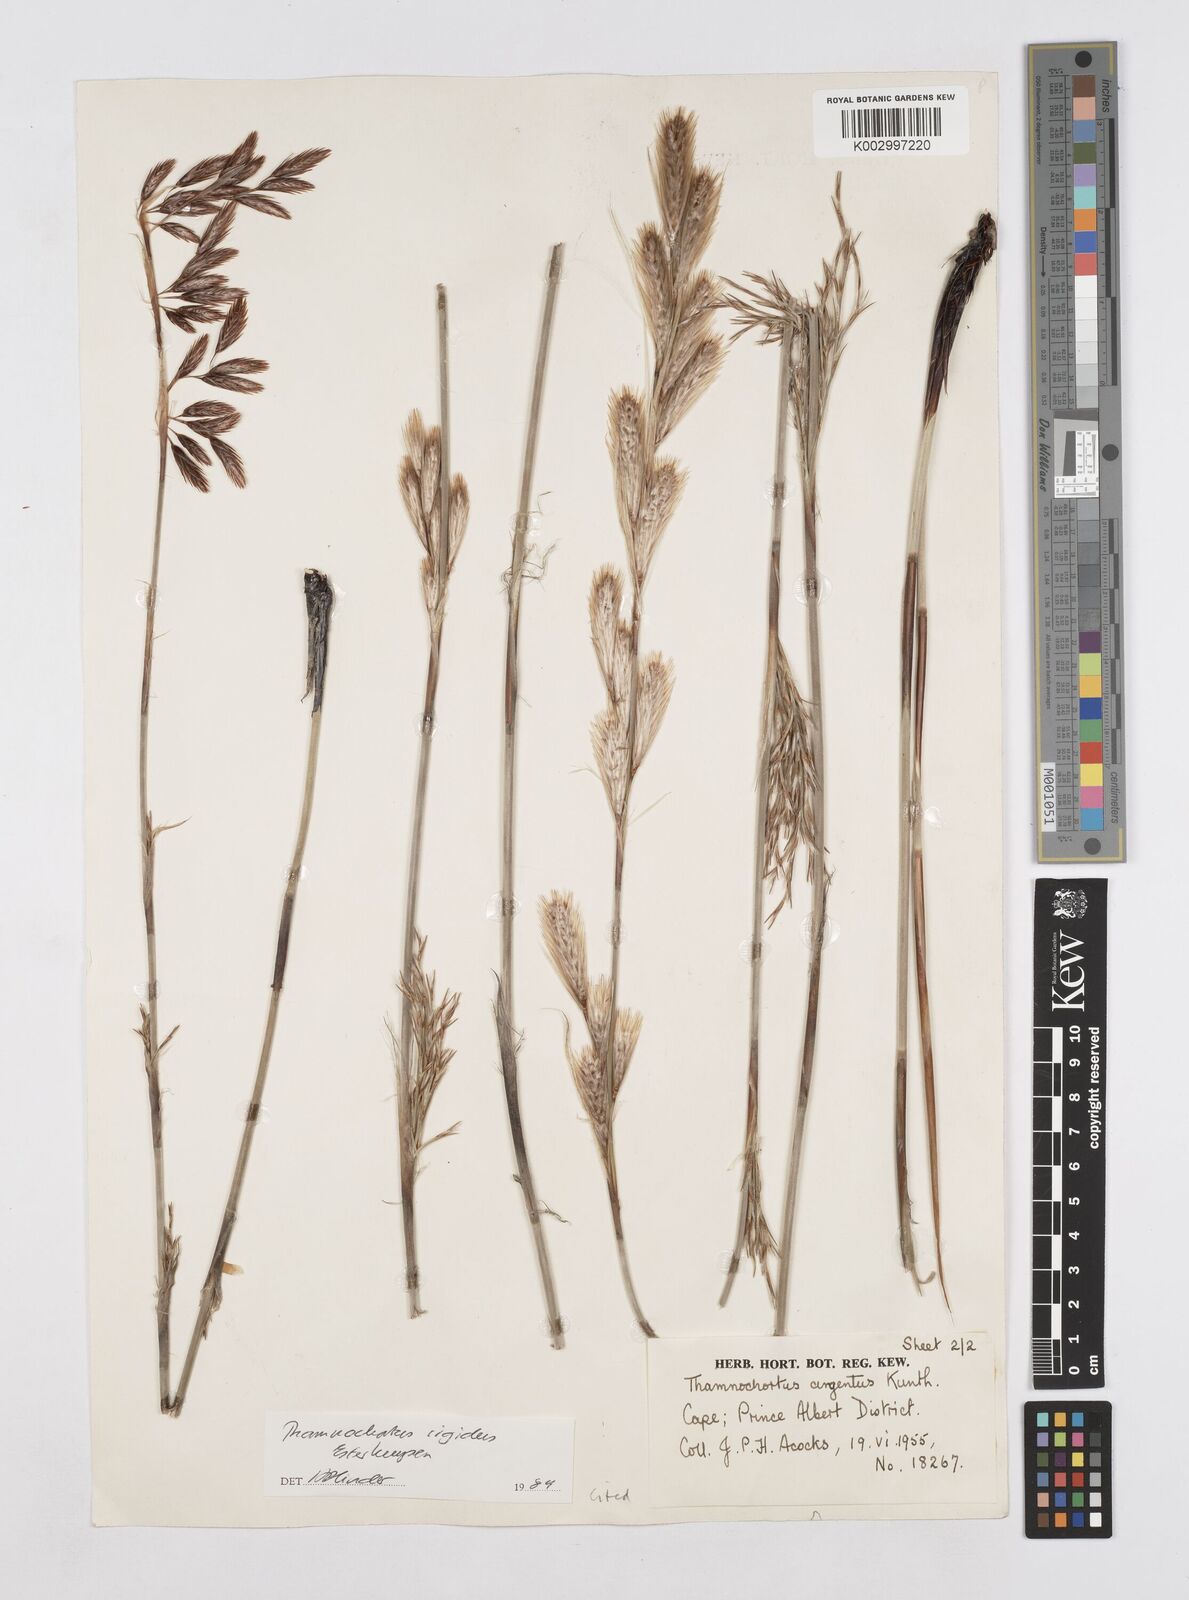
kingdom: Plantae
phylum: Tracheophyta
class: Liliopsida
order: Poales
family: Restionaceae
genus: Thamnochortus
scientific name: Thamnochortus rigidus
